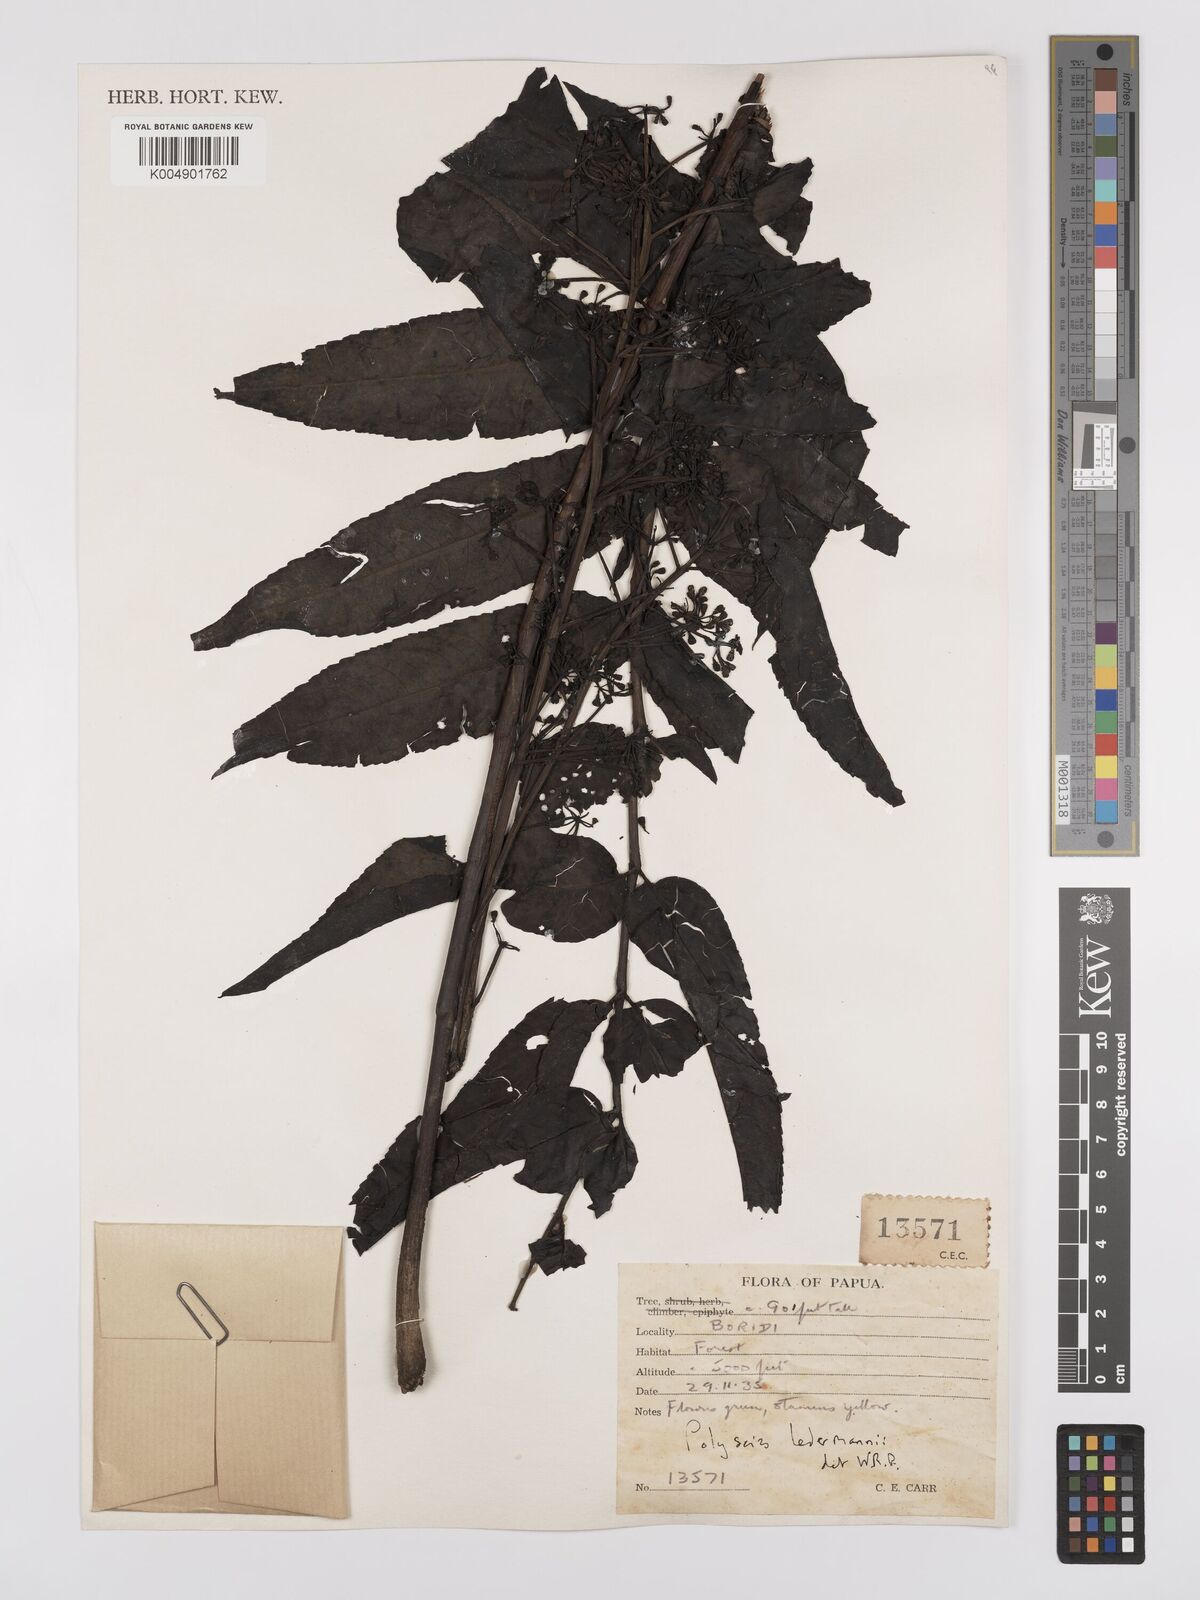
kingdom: Plantae
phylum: Tracheophyta
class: Magnoliopsida
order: Apiales
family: Araliaceae
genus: Polyscias
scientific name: Polyscias ledermannii
